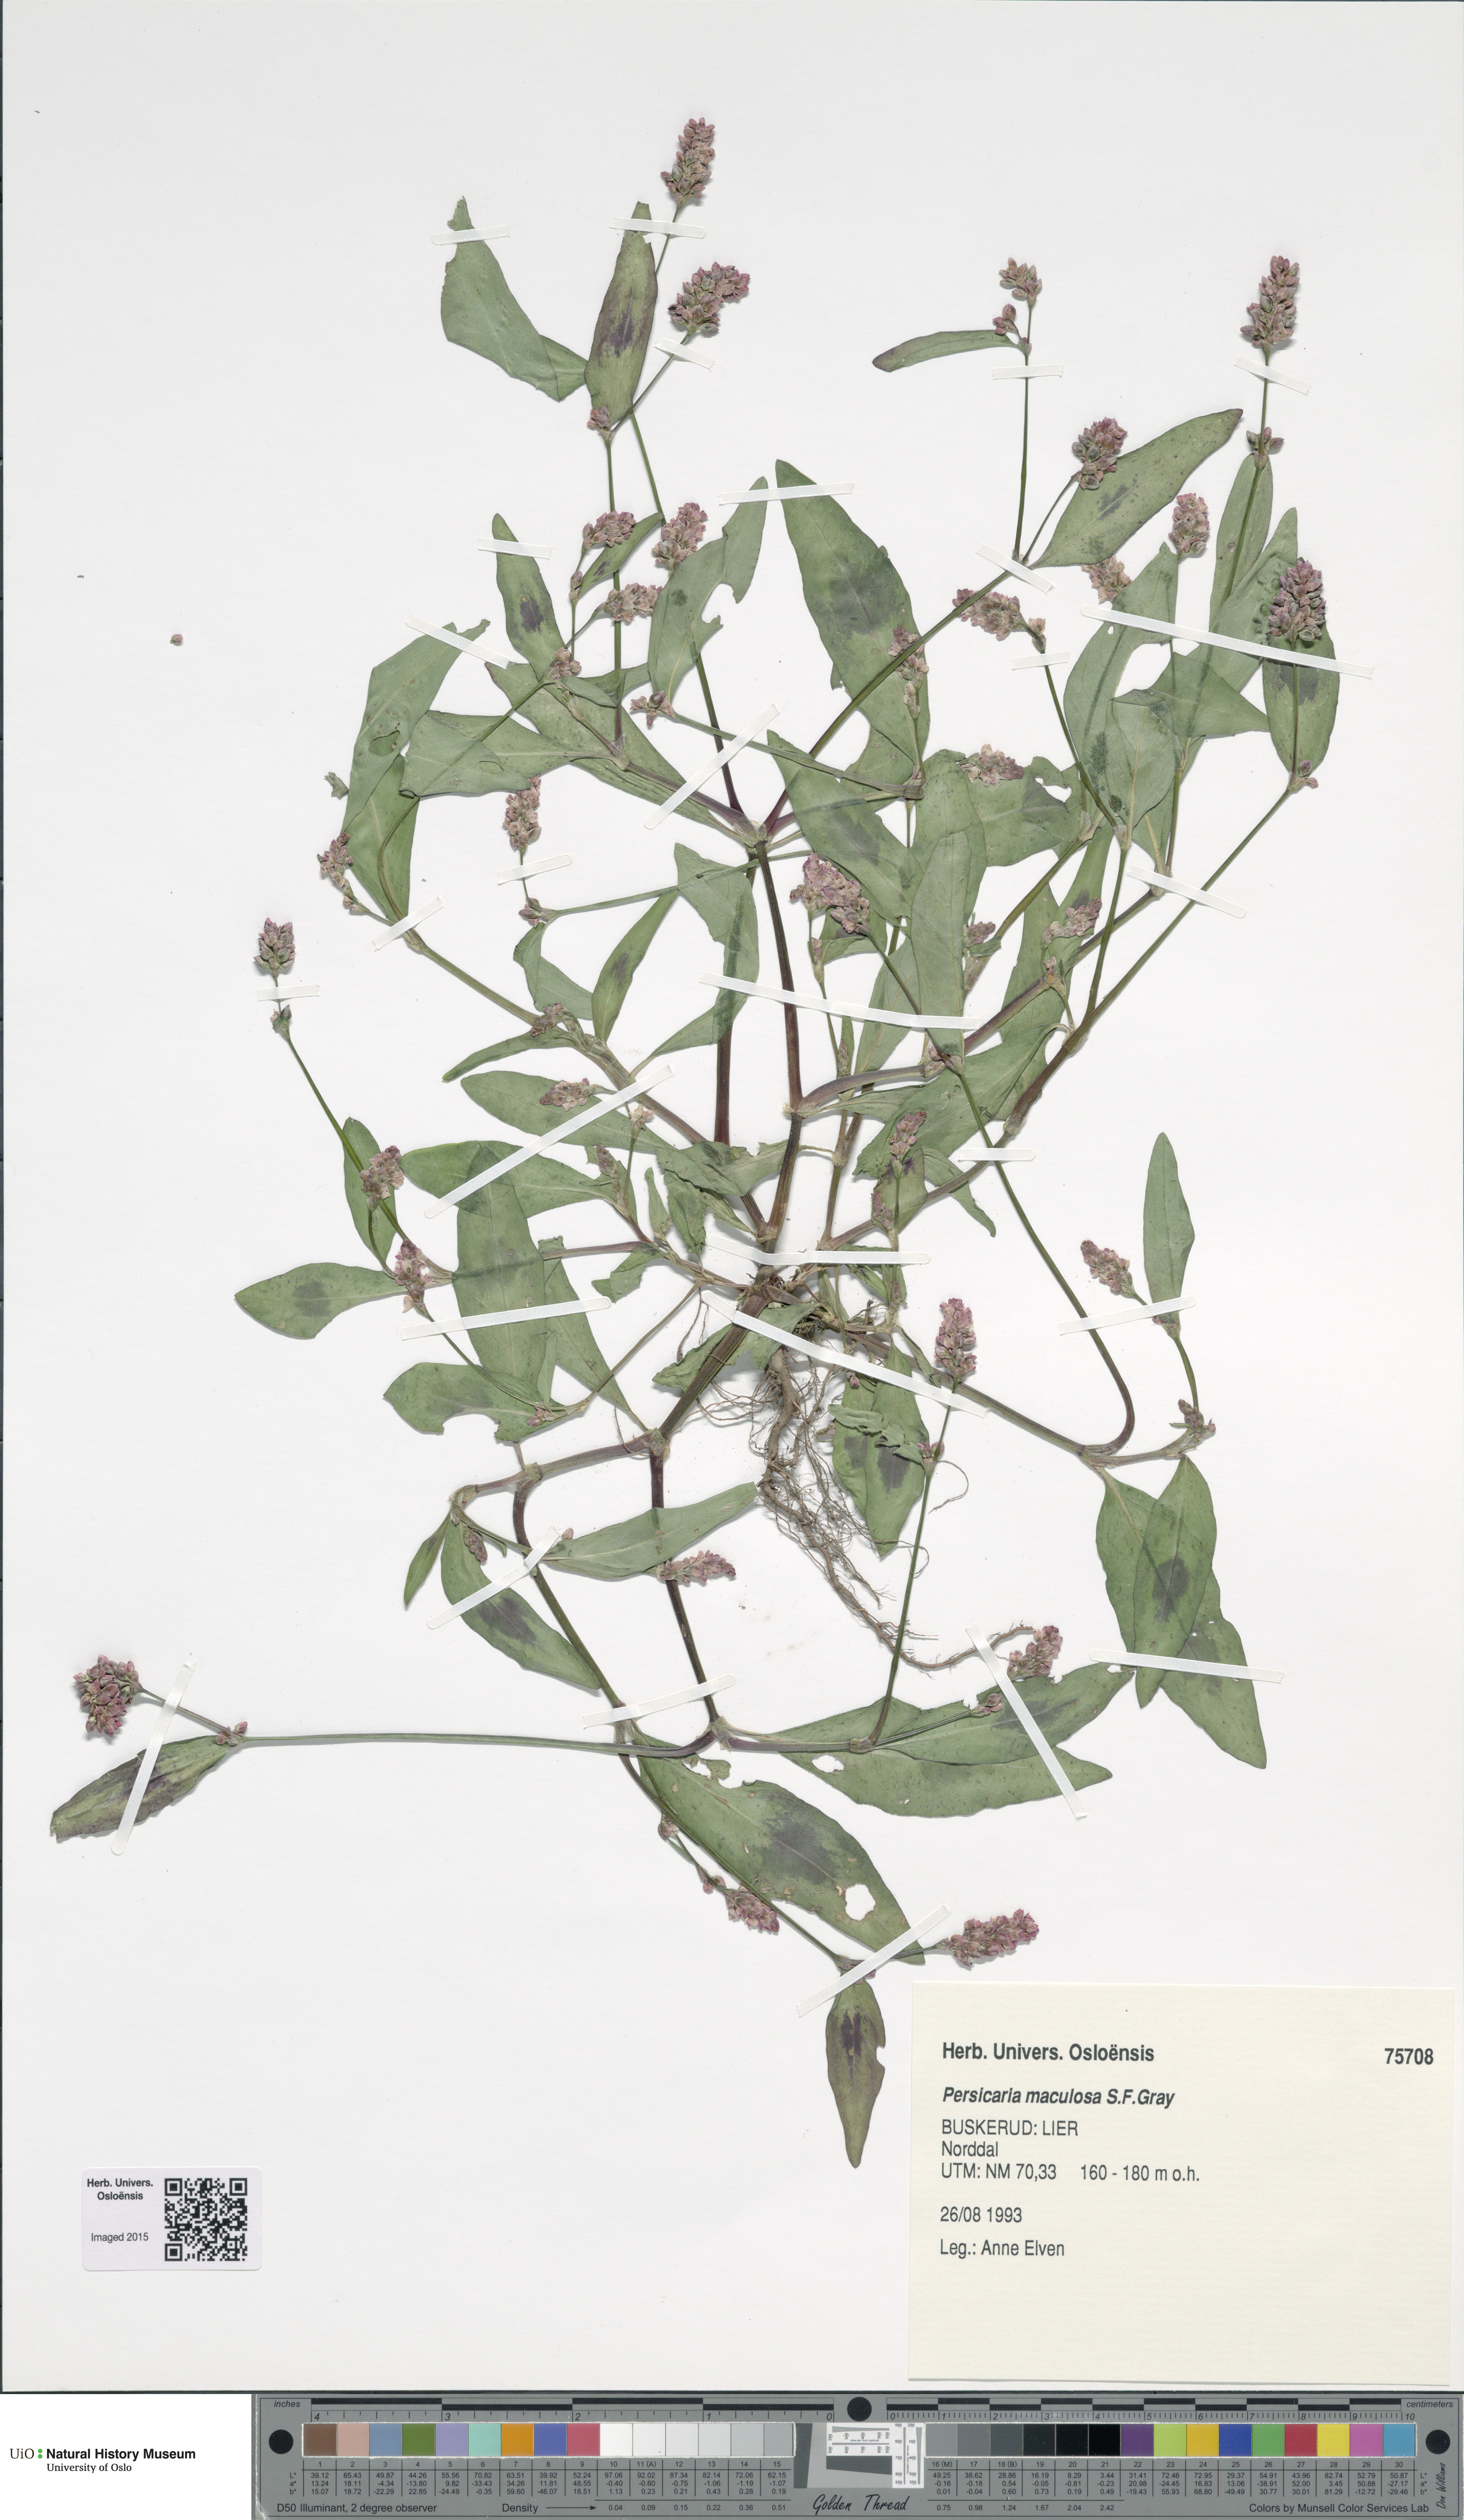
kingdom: Plantae
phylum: Tracheophyta
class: Magnoliopsida
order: Caryophyllales
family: Polygonaceae
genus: Persicaria
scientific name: Persicaria maculosa
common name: Redshank
